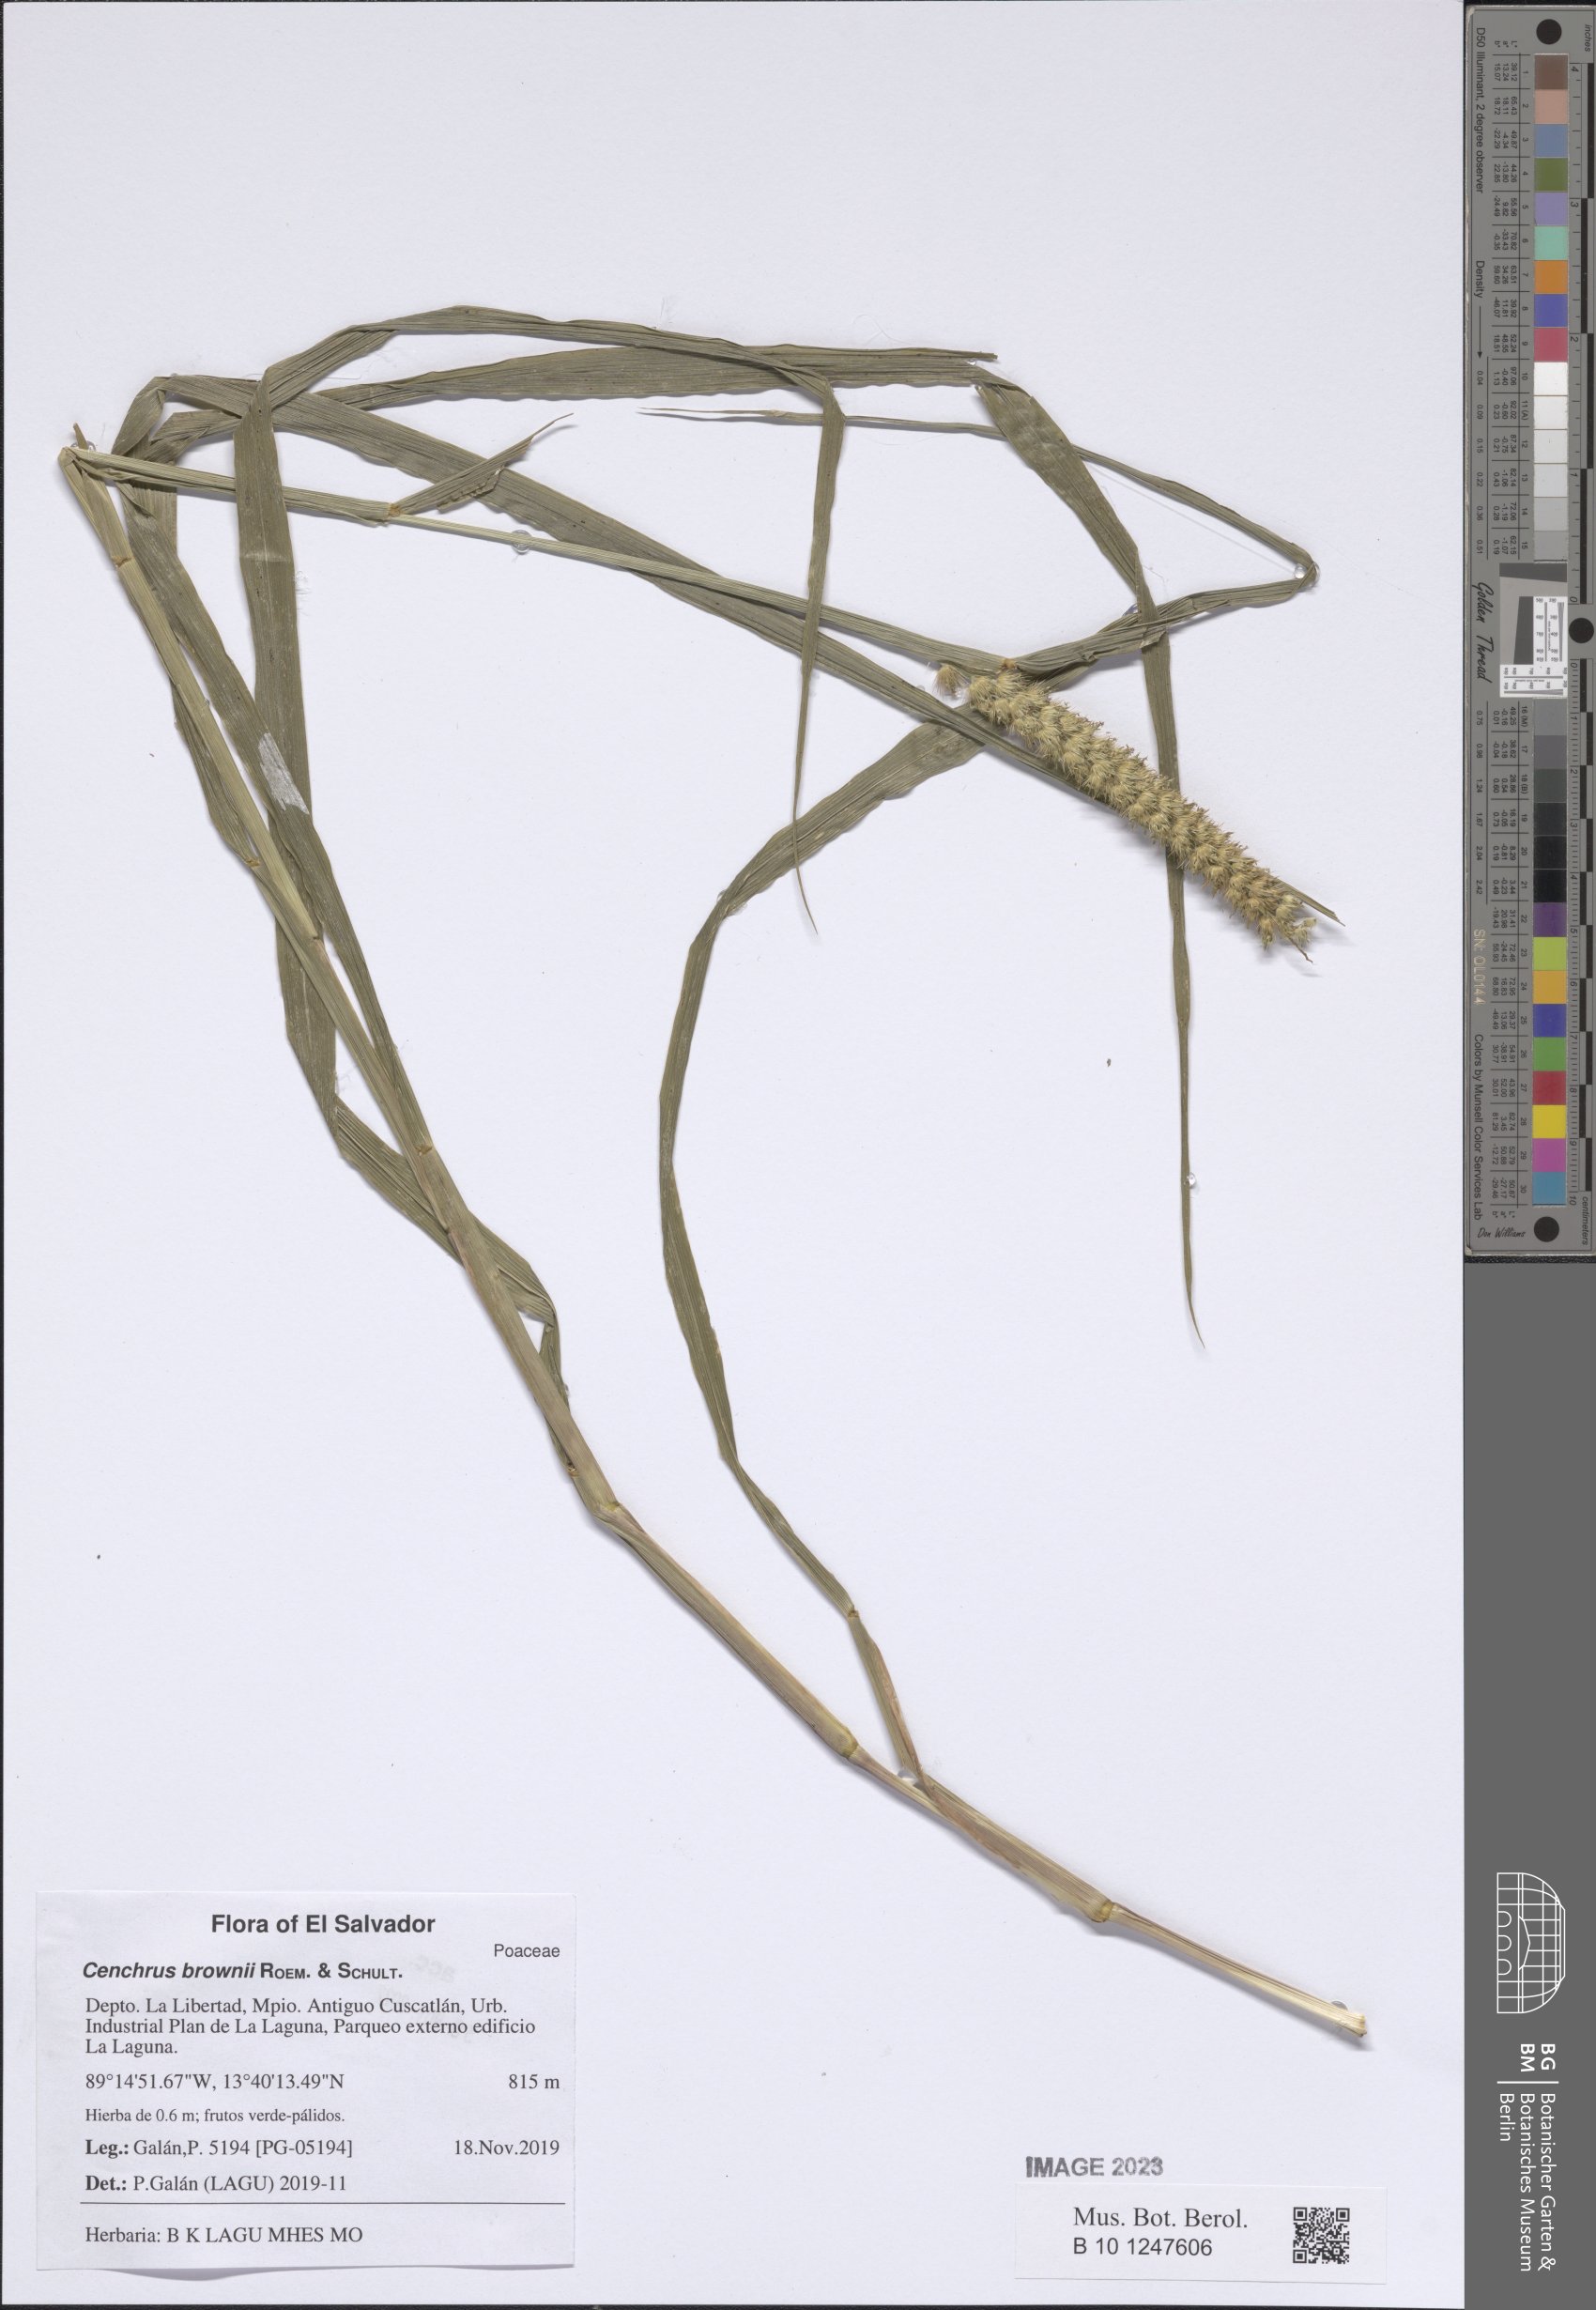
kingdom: Plantae
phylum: Tracheophyta
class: Liliopsida
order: Poales
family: Poaceae
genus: Cenchrus
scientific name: Cenchrus brownii
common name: Slim-bristle sandbur
